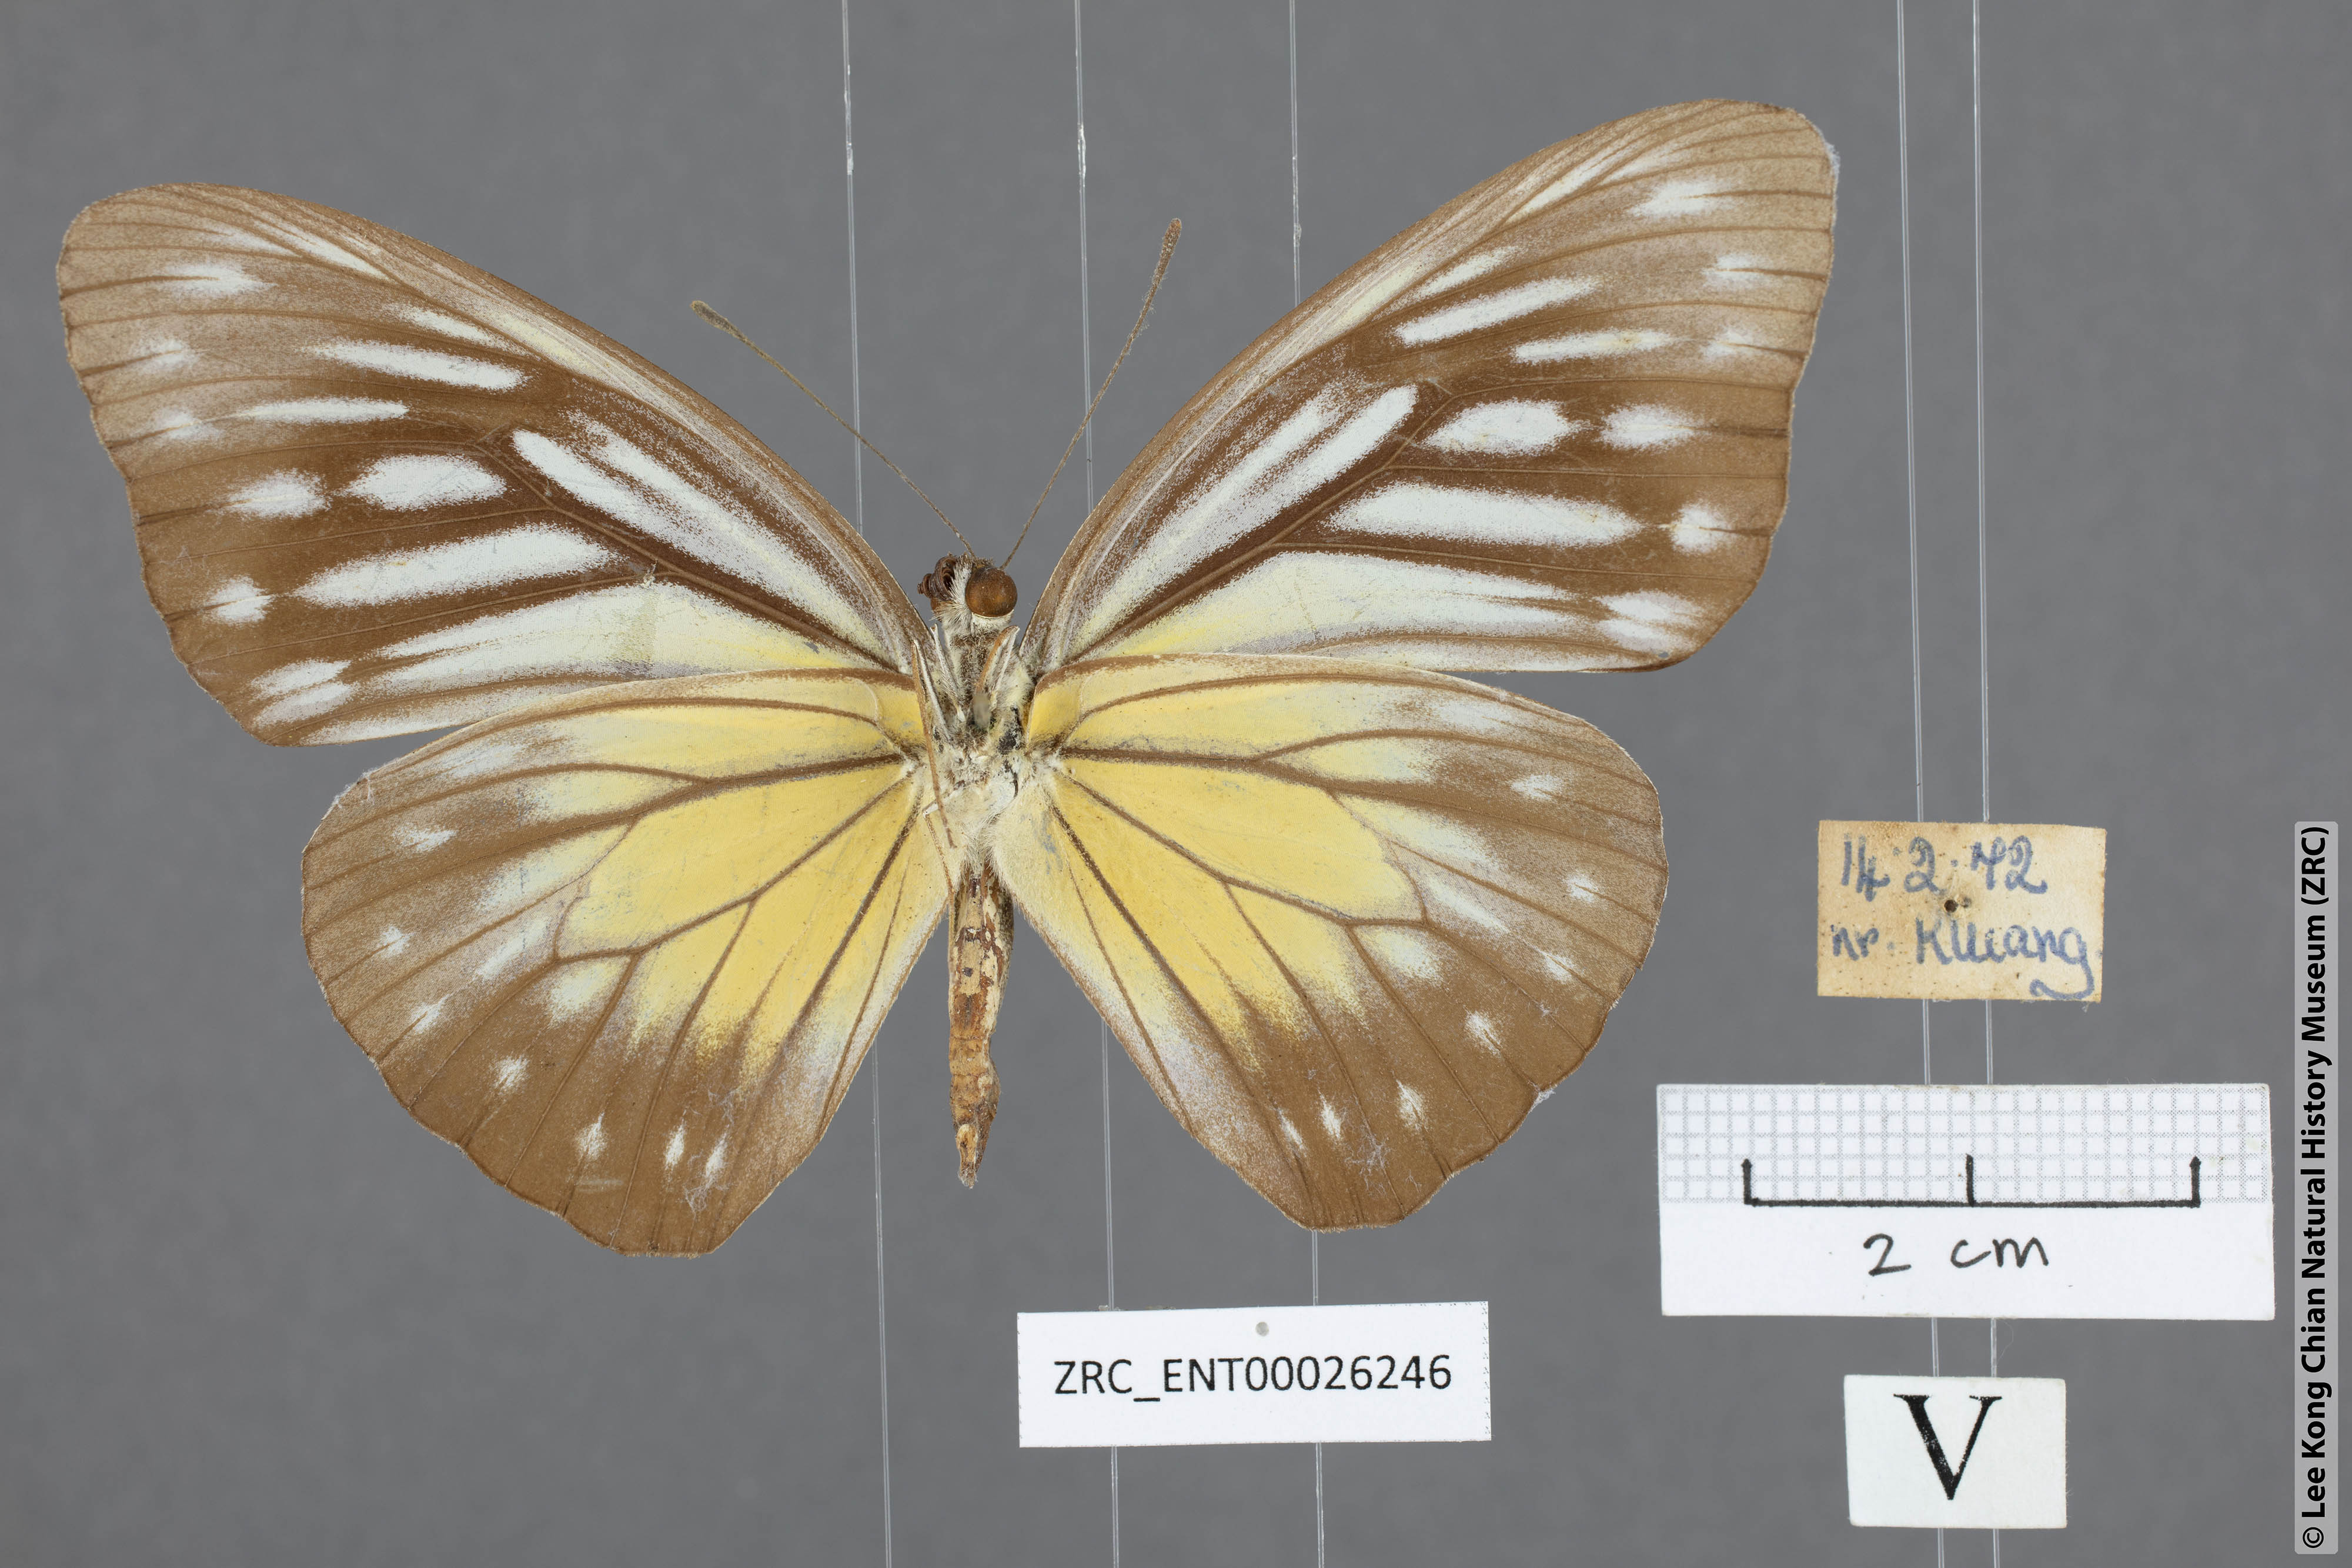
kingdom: Animalia
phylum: Arthropoda
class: Insecta
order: Lepidoptera
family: Pieridae
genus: Pareronia
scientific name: Pareronia valeria
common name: Common wanderer?
